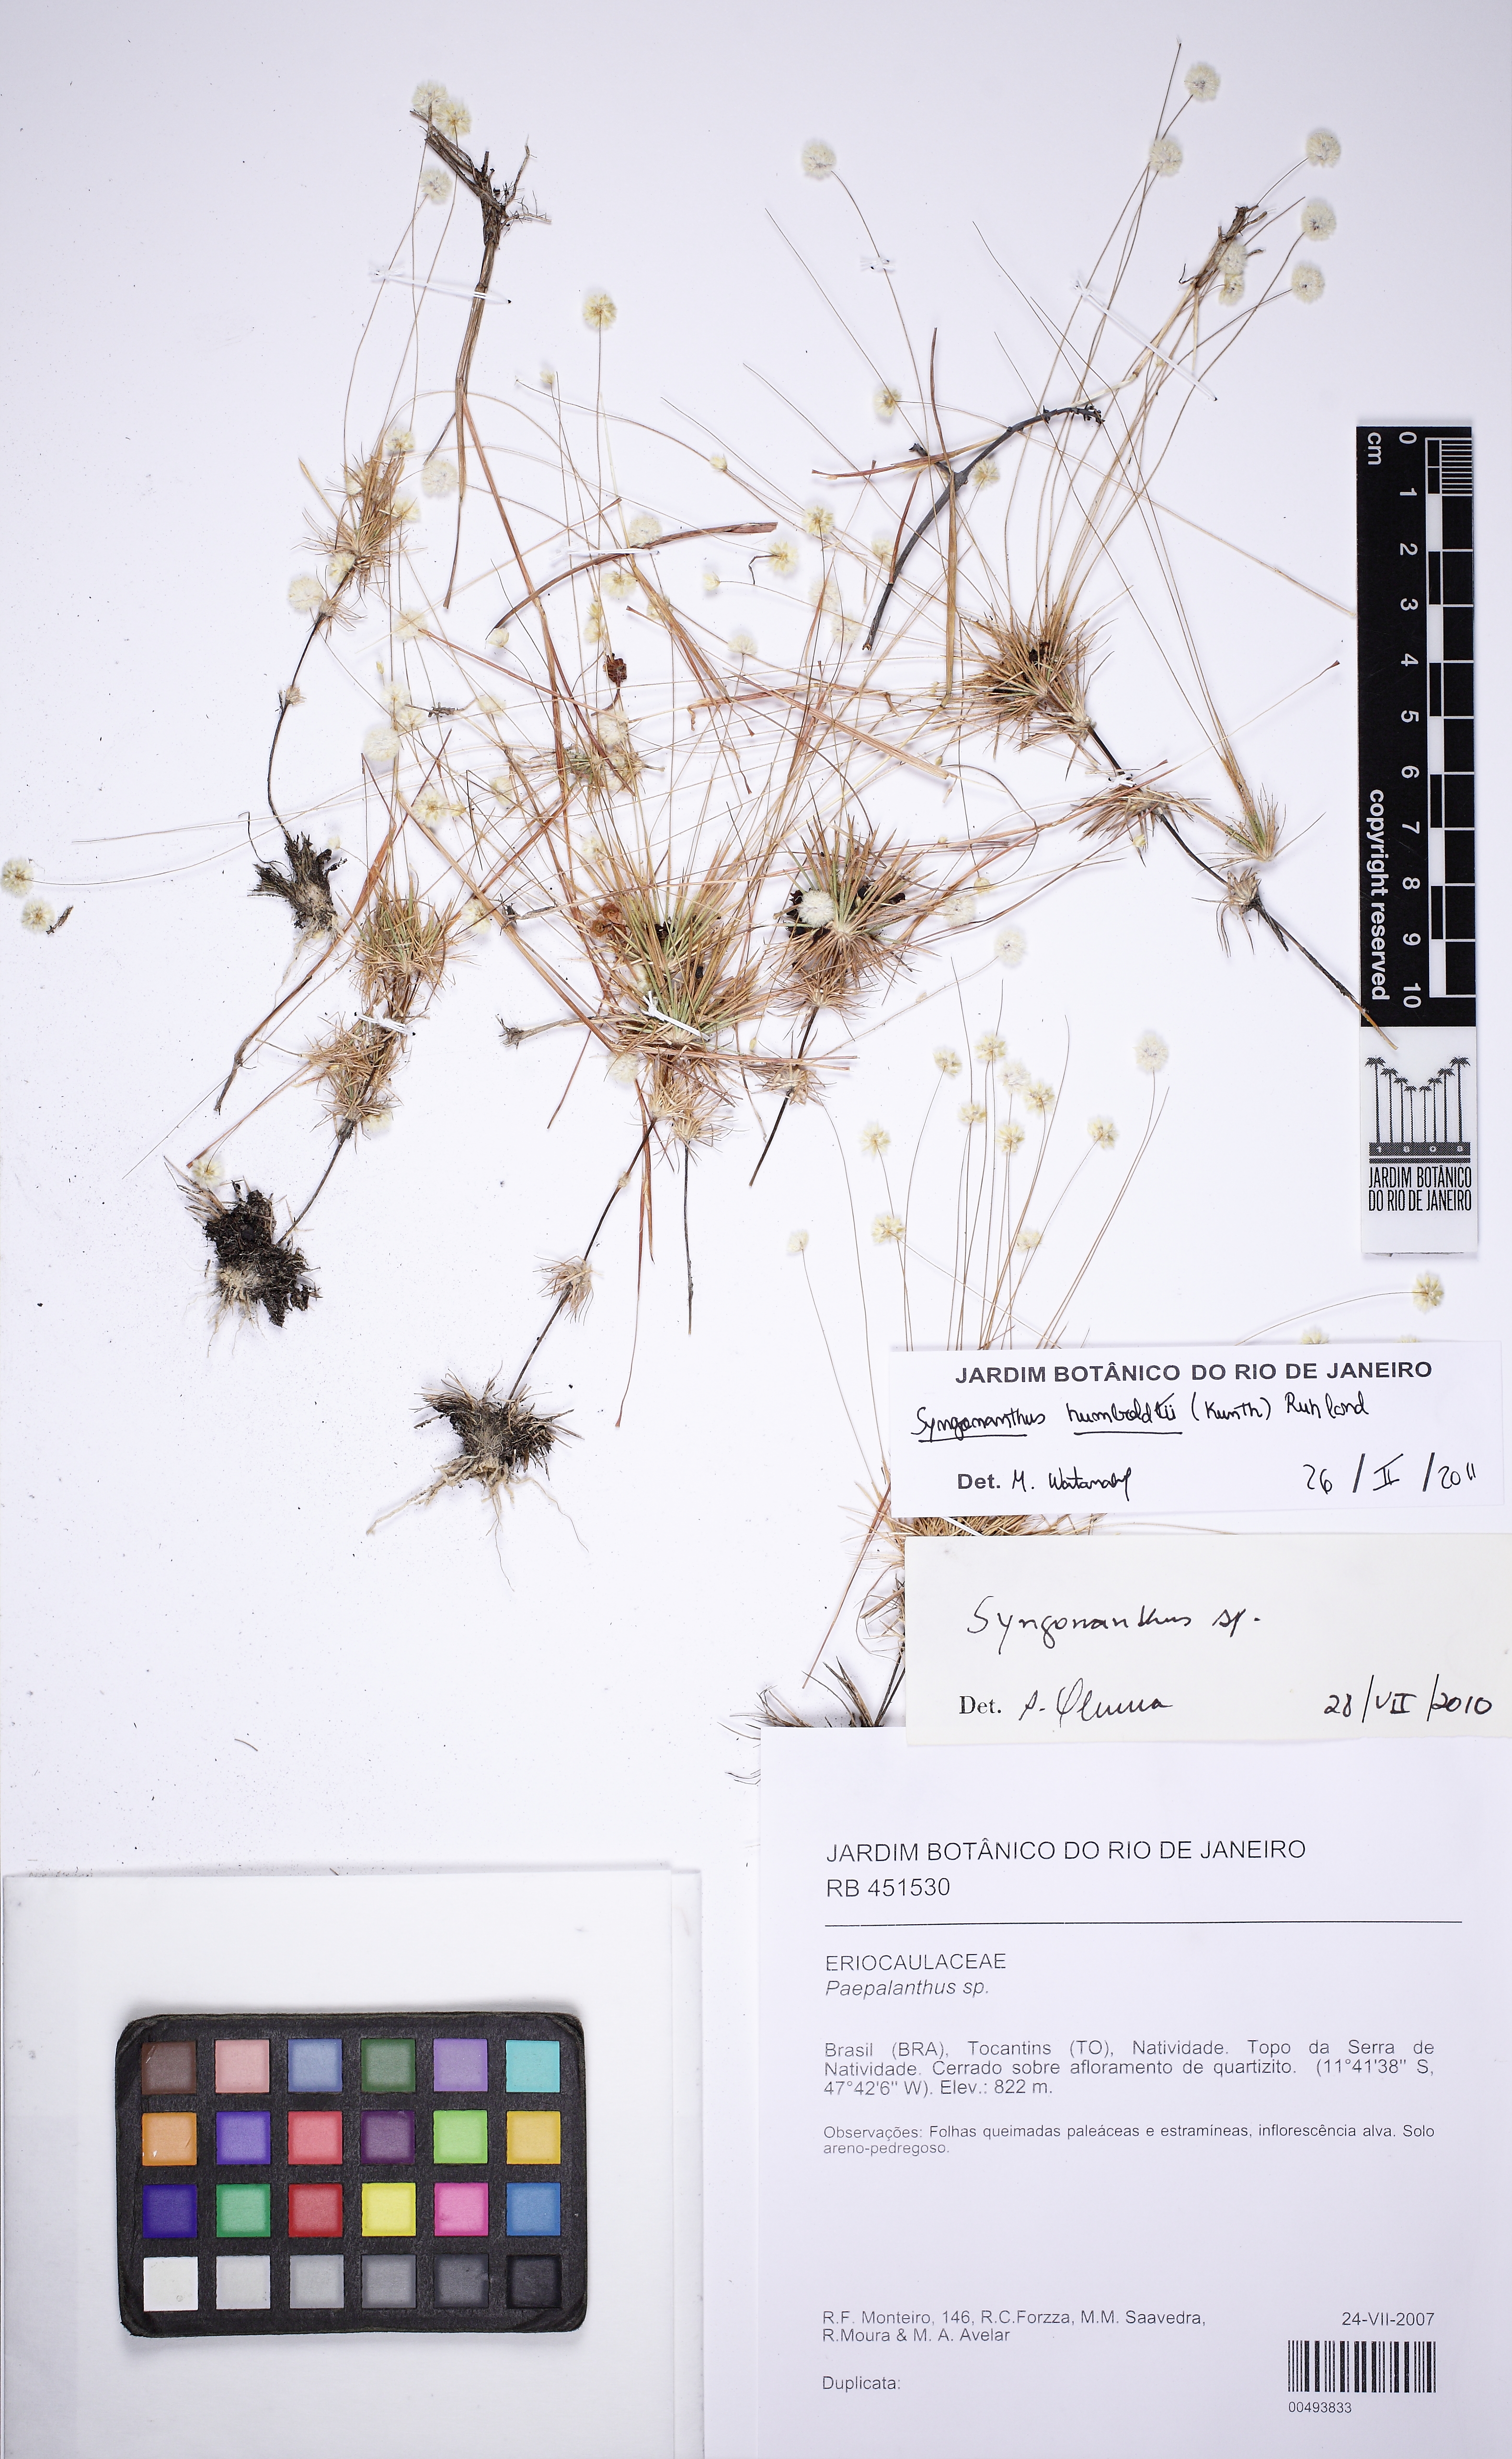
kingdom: Plantae
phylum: Tracheophyta
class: Liliopsida
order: Poales
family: Eriocaulaceae
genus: Syngonanthus
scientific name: Syngonanthus humboldtii
